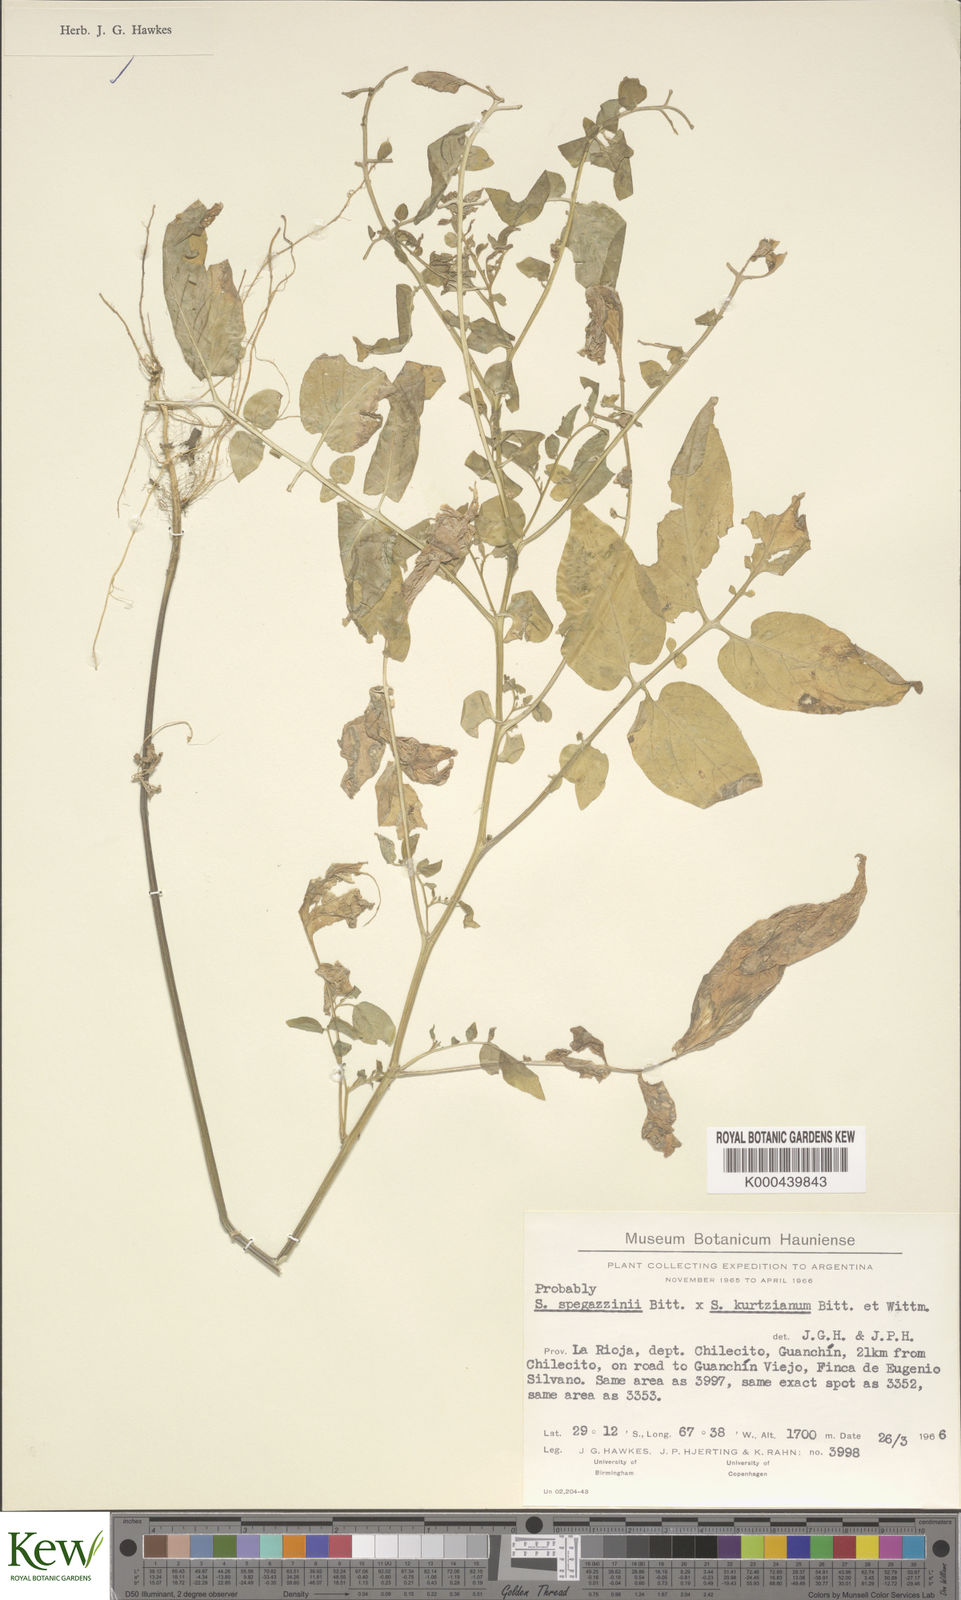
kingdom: Plantae
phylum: Tracheophyta
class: Magnoliopsida
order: Solanales
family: Solanaceae
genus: Solanum
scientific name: Solanum brevicaule
